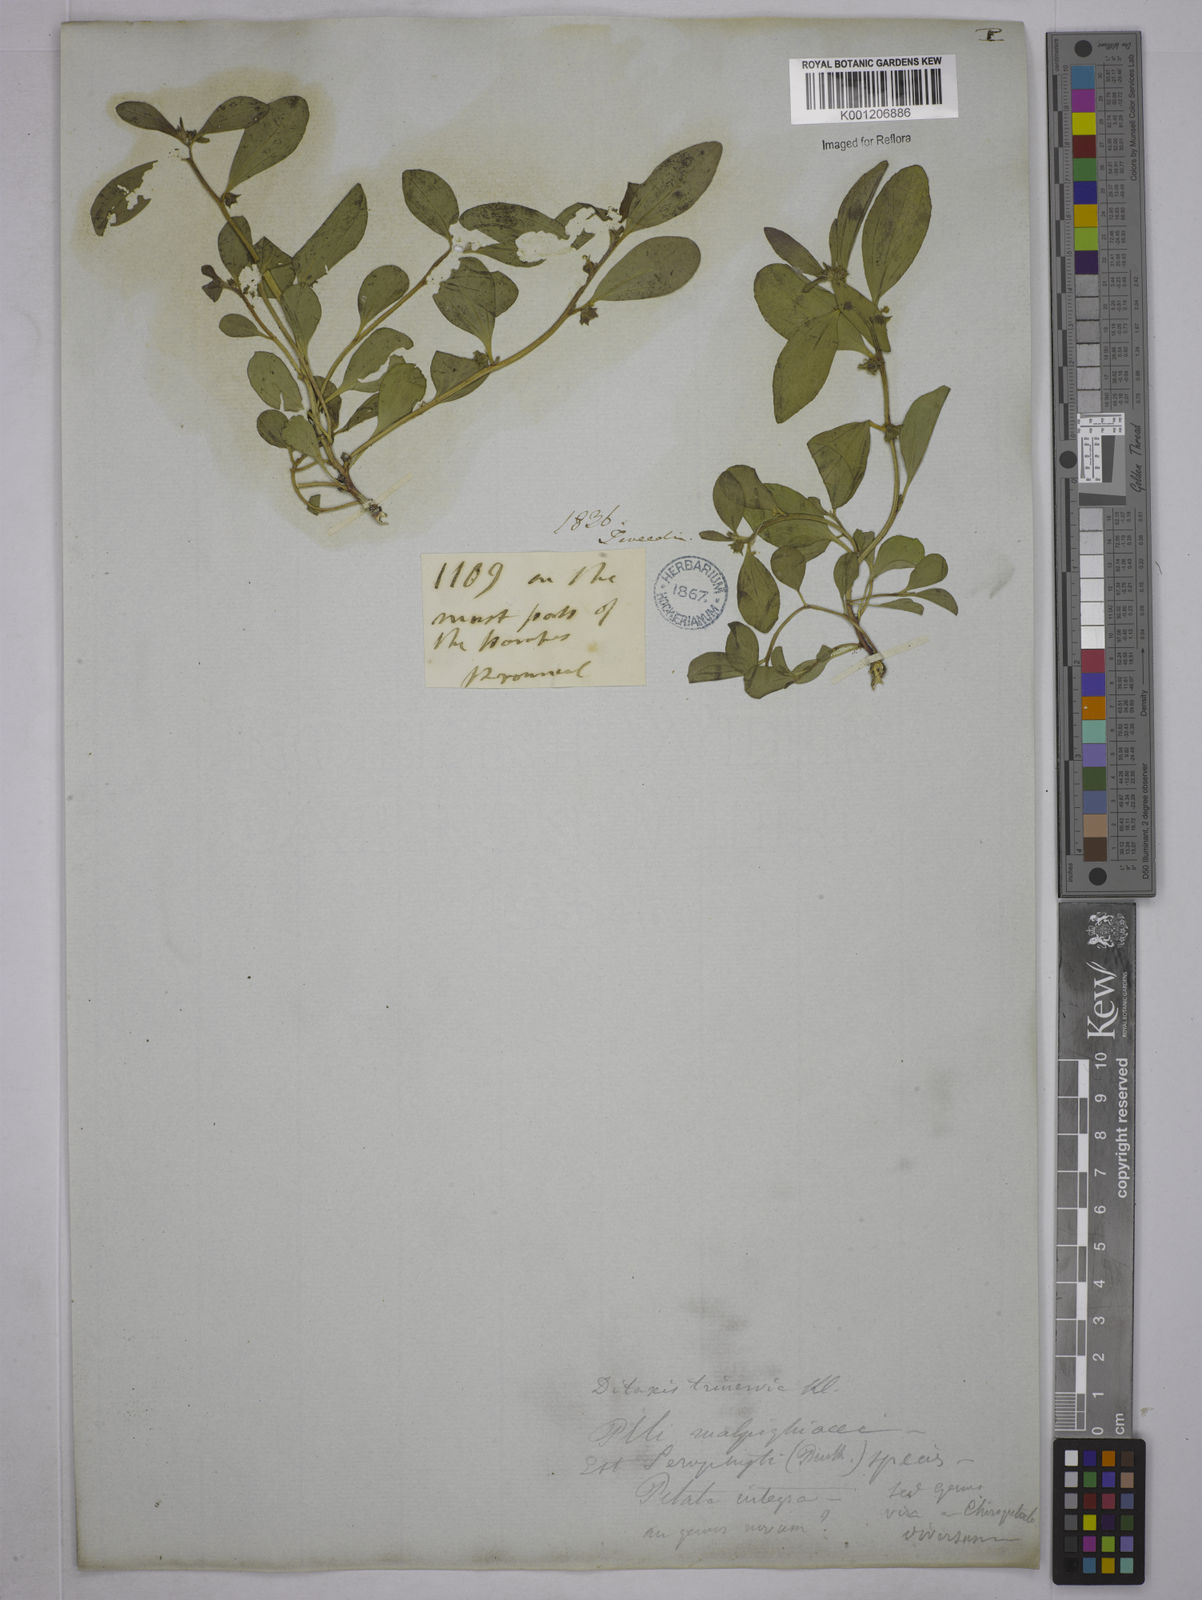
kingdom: Plantae
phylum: Tracheophyta
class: Magnoliopsida
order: Malpighiales
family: Euphorbiaceae
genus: Ditaxis
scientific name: Ditaxis montevidensis
